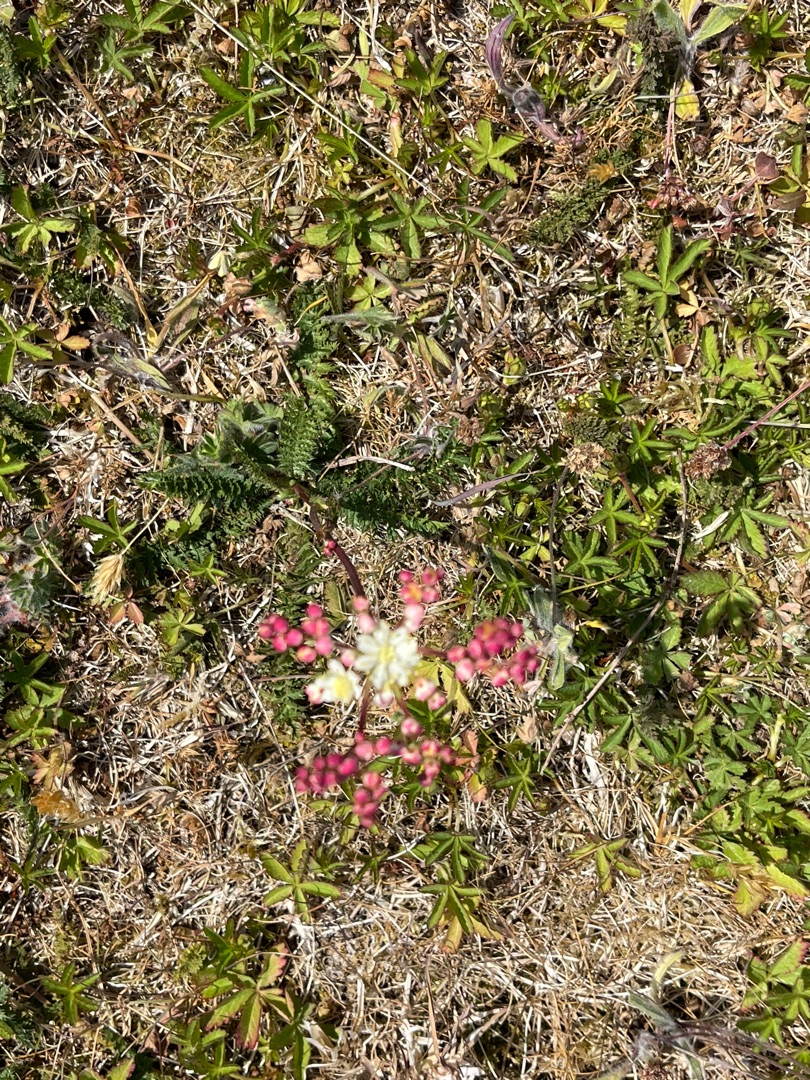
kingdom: Plantae
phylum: Tracheophyta
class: Magnoliopsida
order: Rosales
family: Rosaceae
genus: Filipendula
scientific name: Filipendula vulgaris
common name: Knoldet mjødurt
